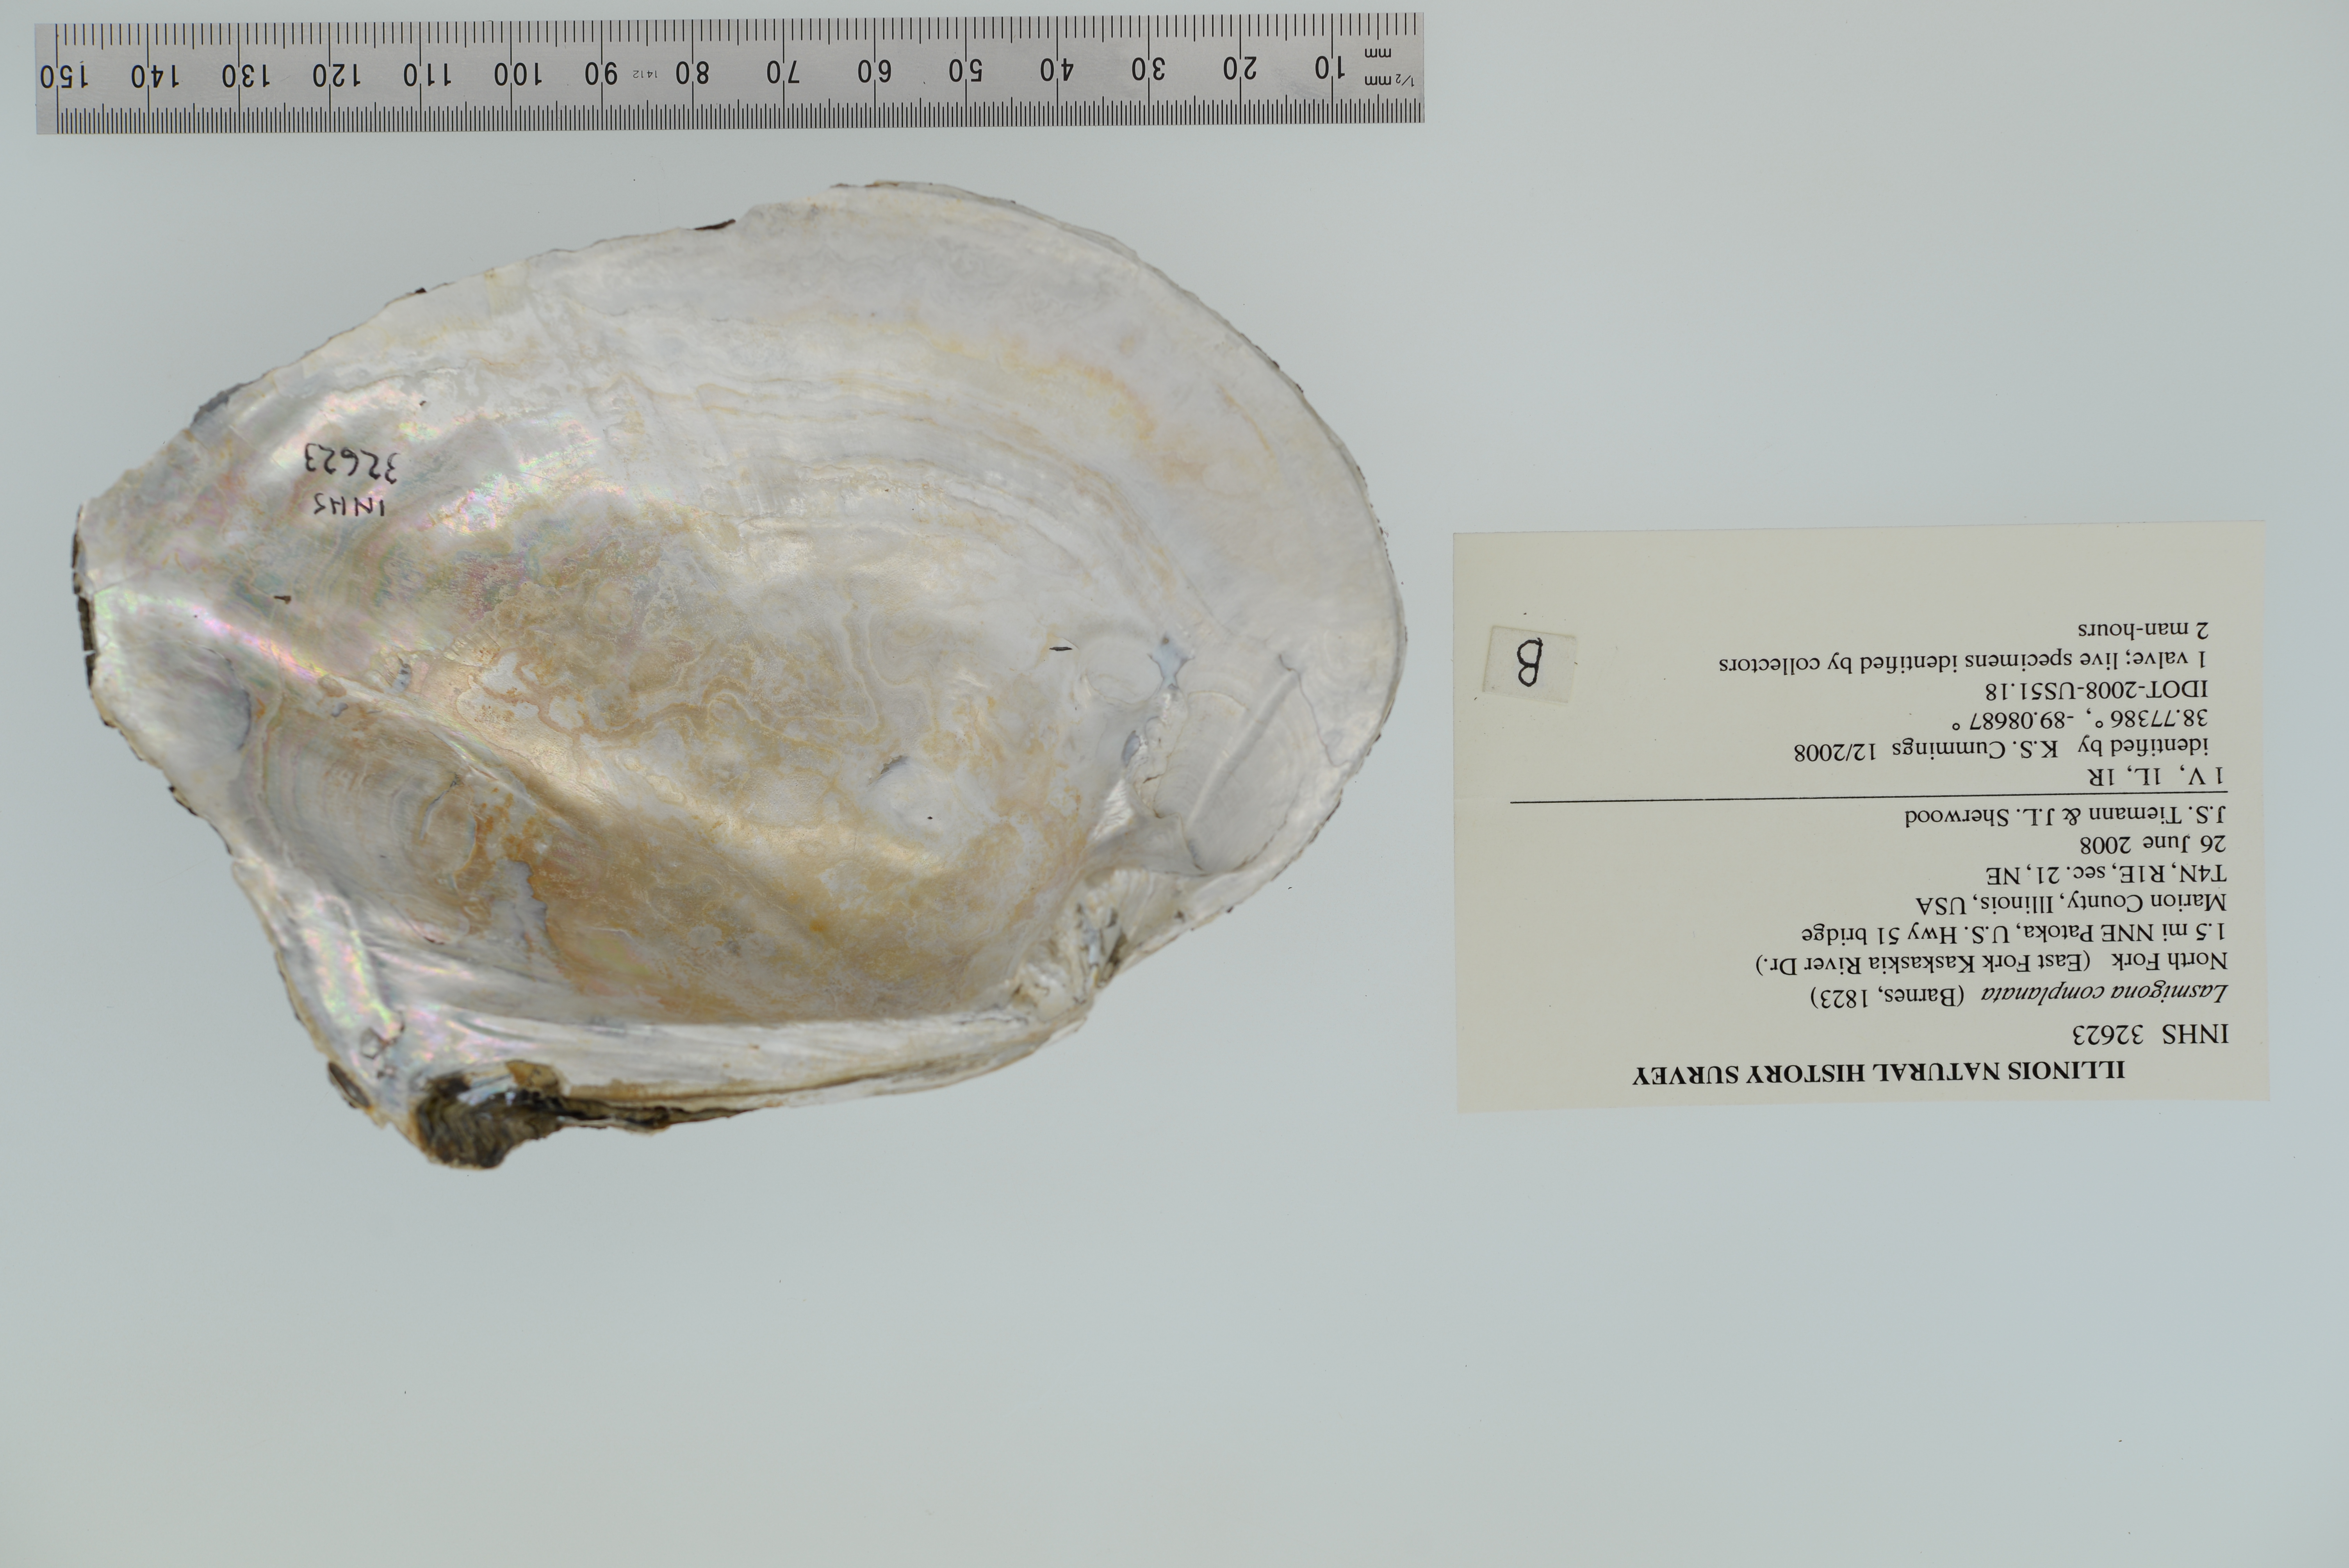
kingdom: Animalia
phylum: Mollusca
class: Bivalvia
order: Unionida
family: Unionidae
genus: Lasmigona
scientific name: Lasmigona complanata
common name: White heelsplitter
